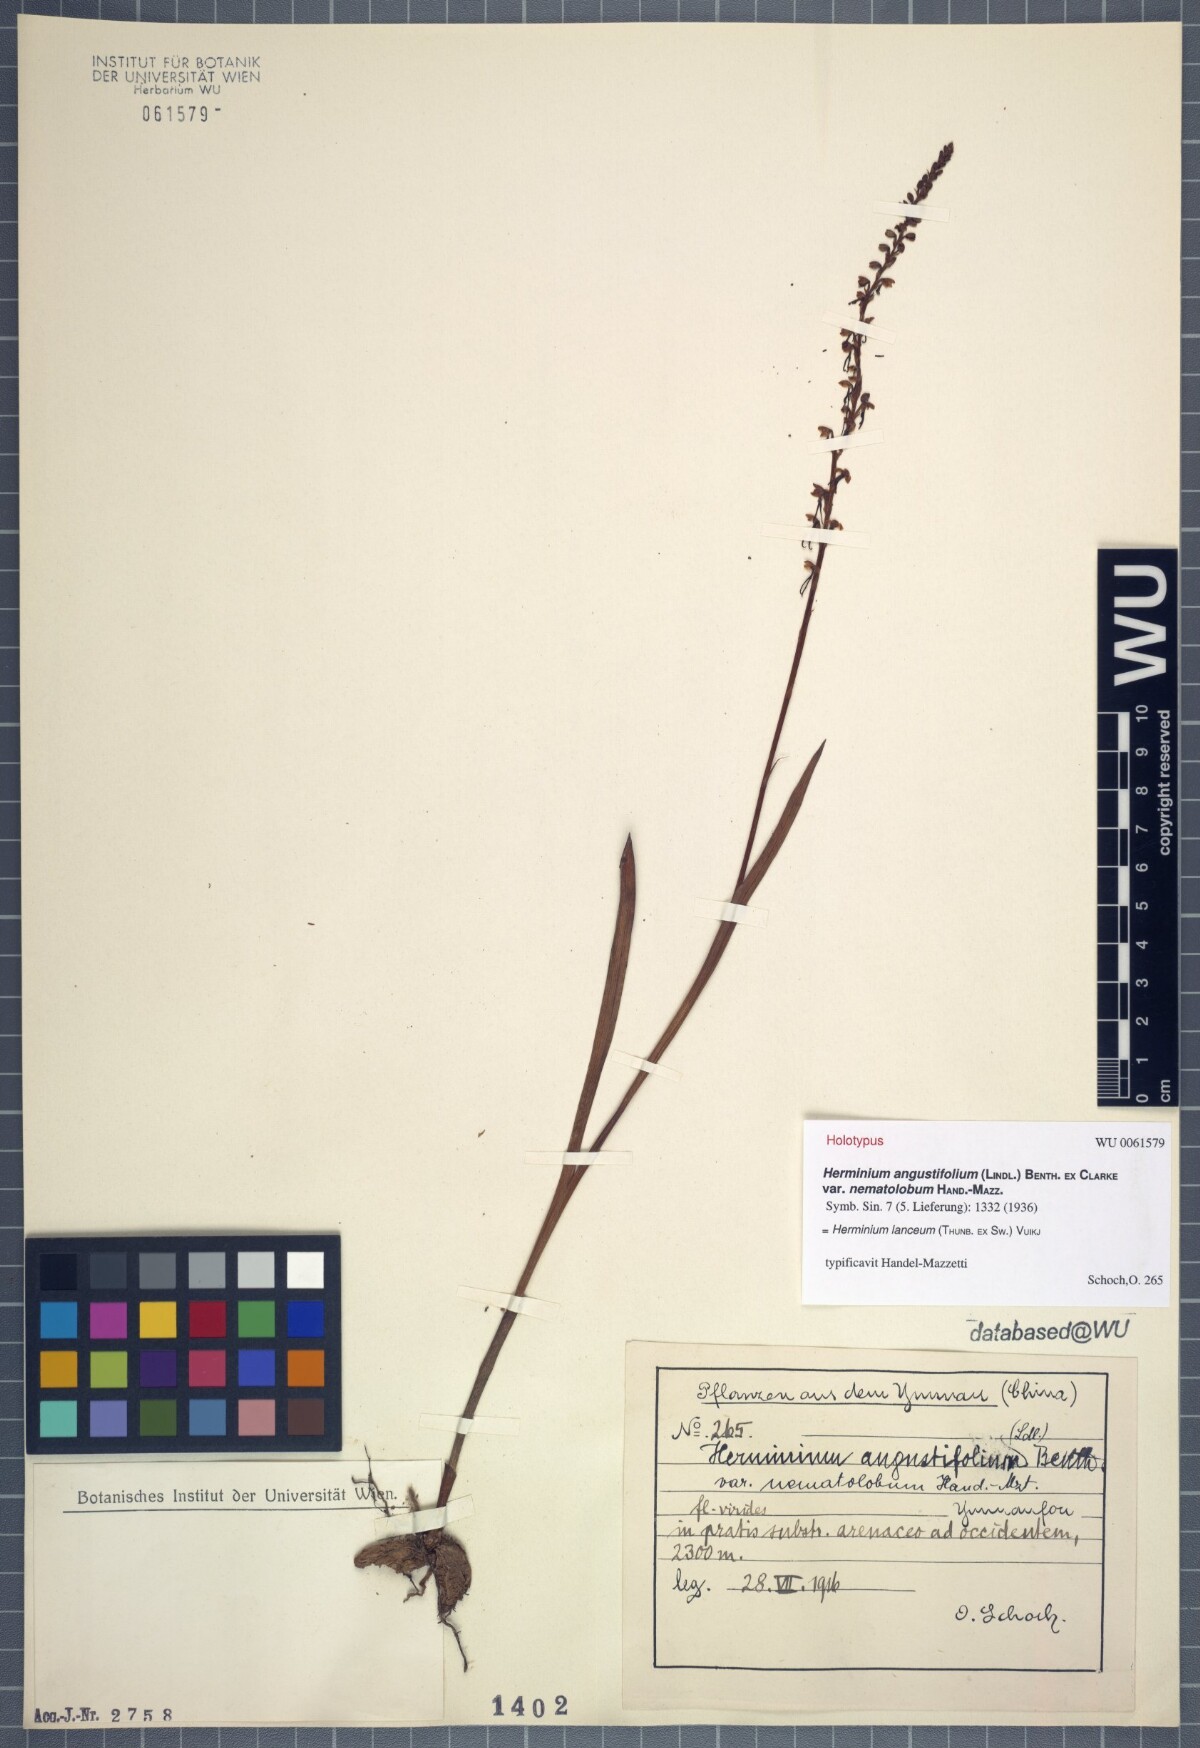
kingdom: Plantae
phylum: Tracheophyta
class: Liliopsida
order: Asparagales
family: Orchidaceae
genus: Herminium
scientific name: Herminium lanceum
